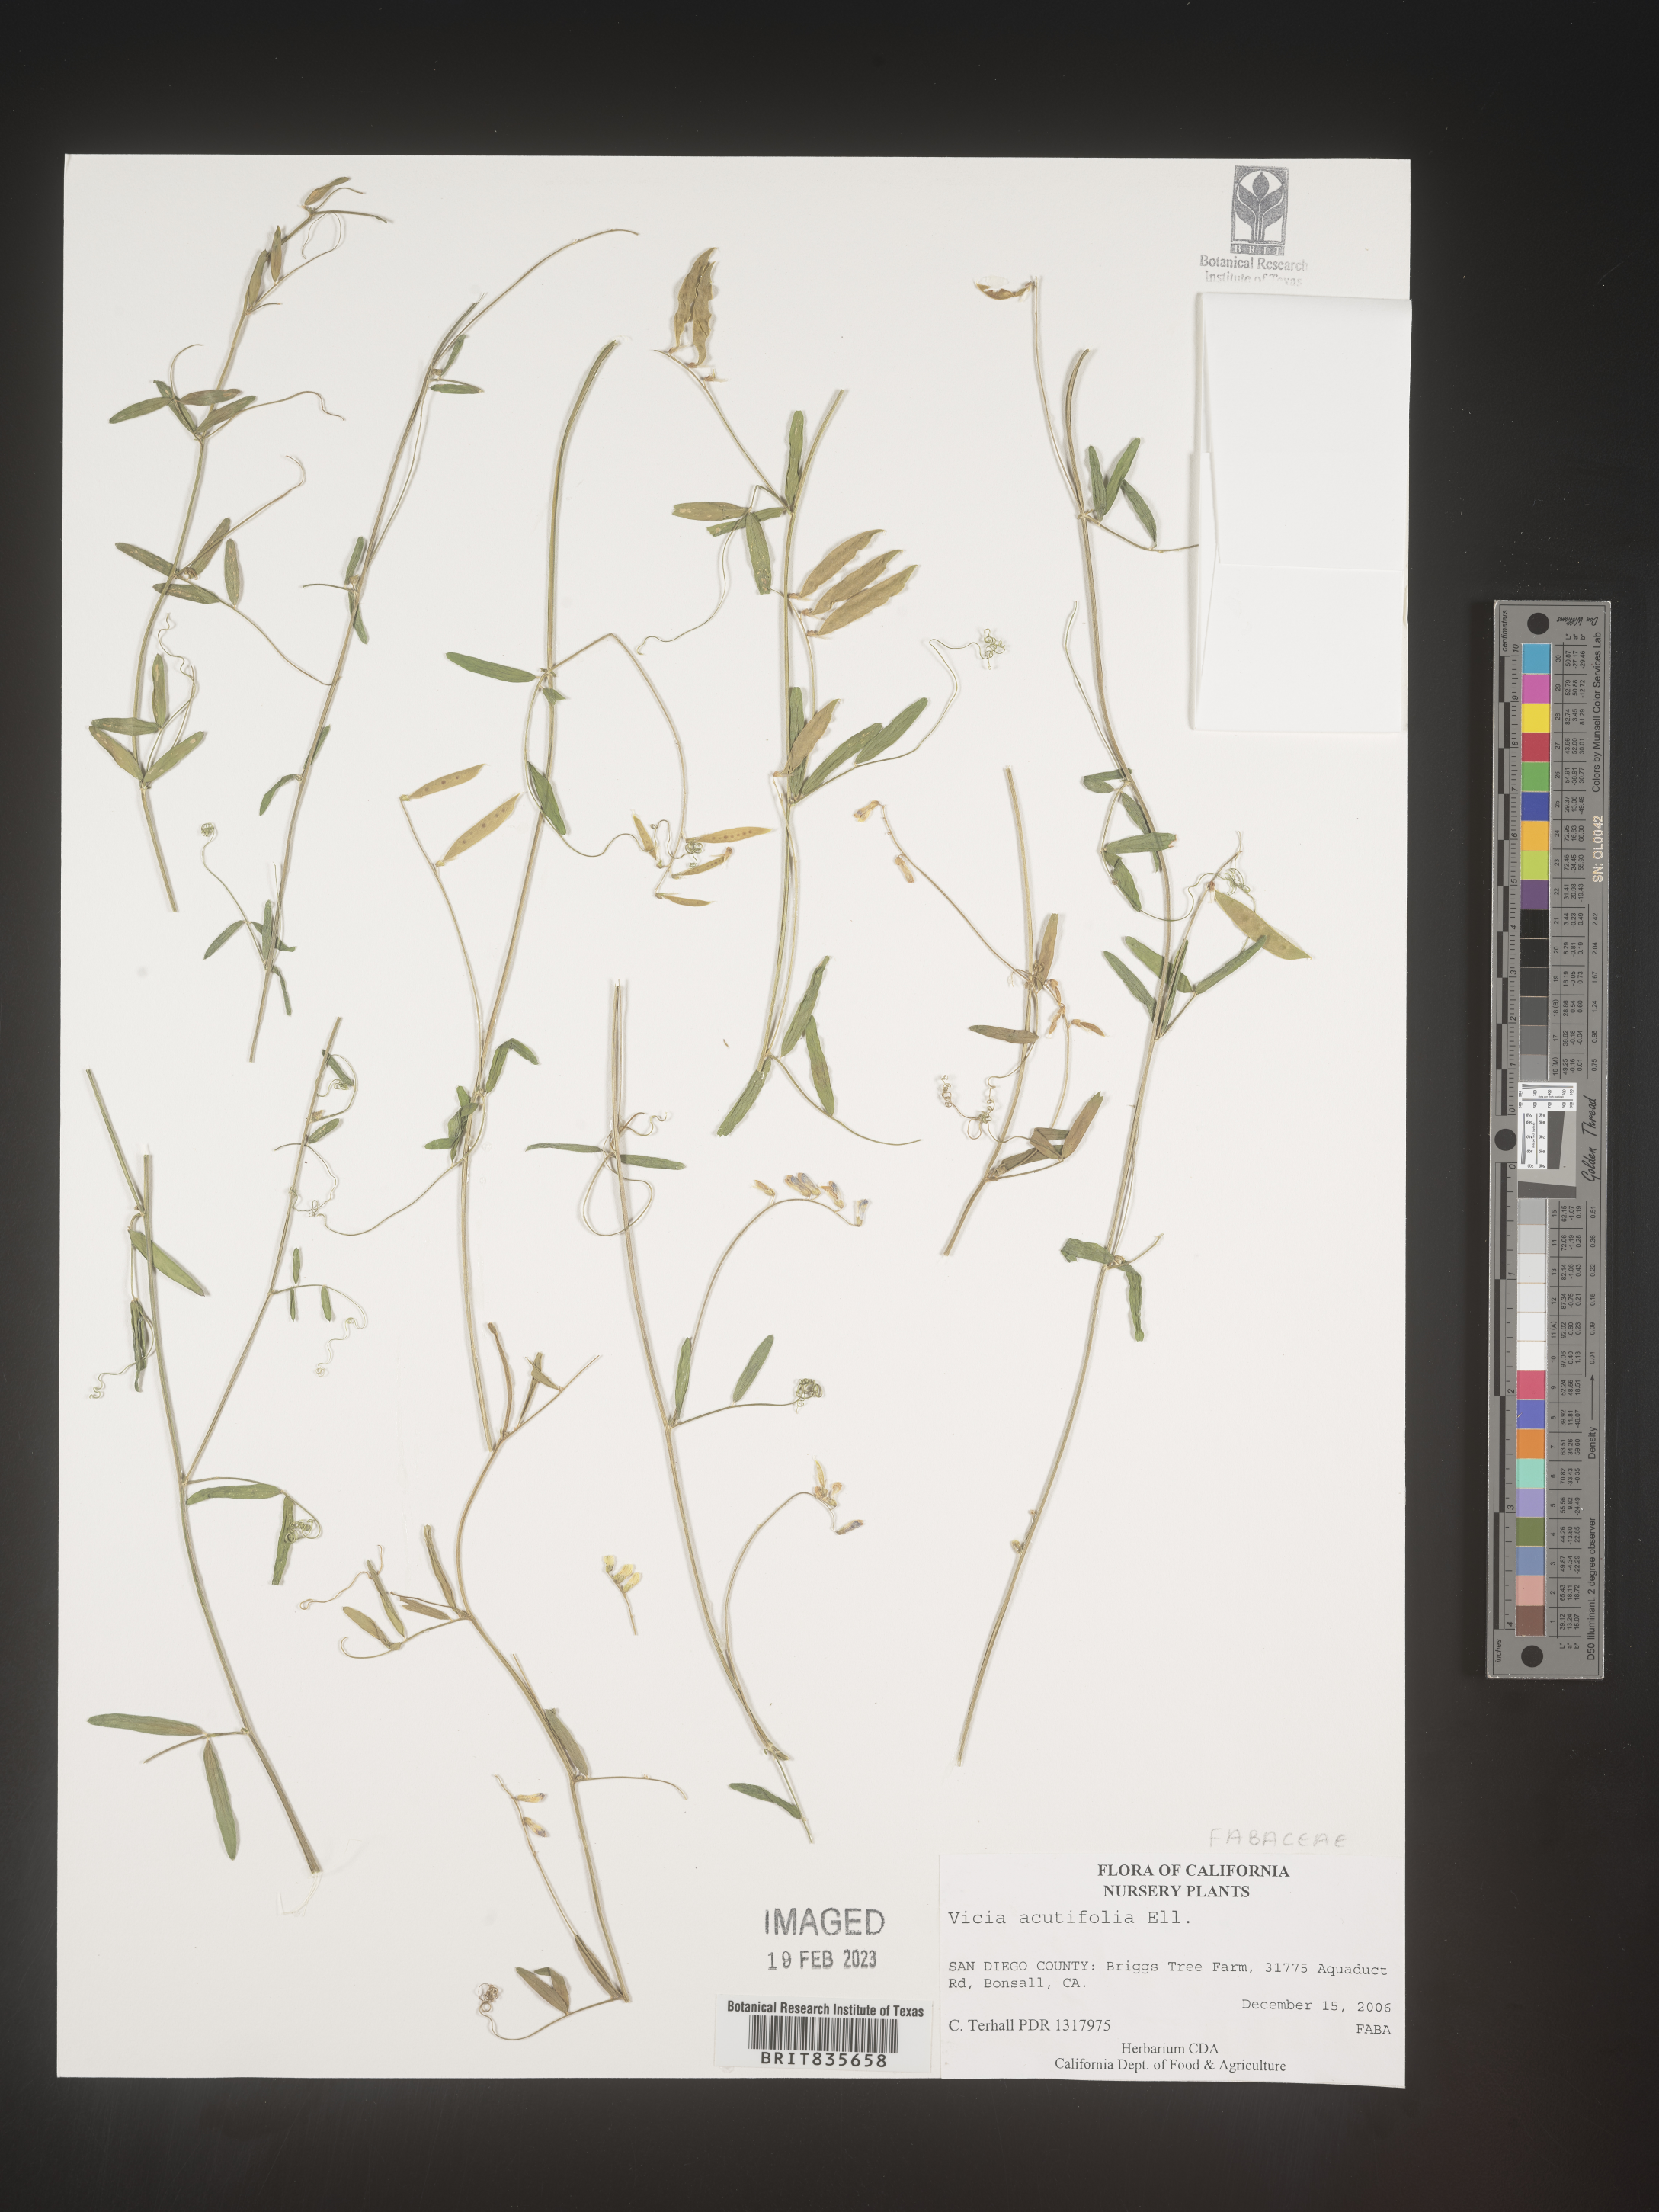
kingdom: Plantae
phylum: Tracheophyta
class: Magnoliopsida
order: Fabales
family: Fabaceae
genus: Vicia
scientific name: Vicia acutifolia
